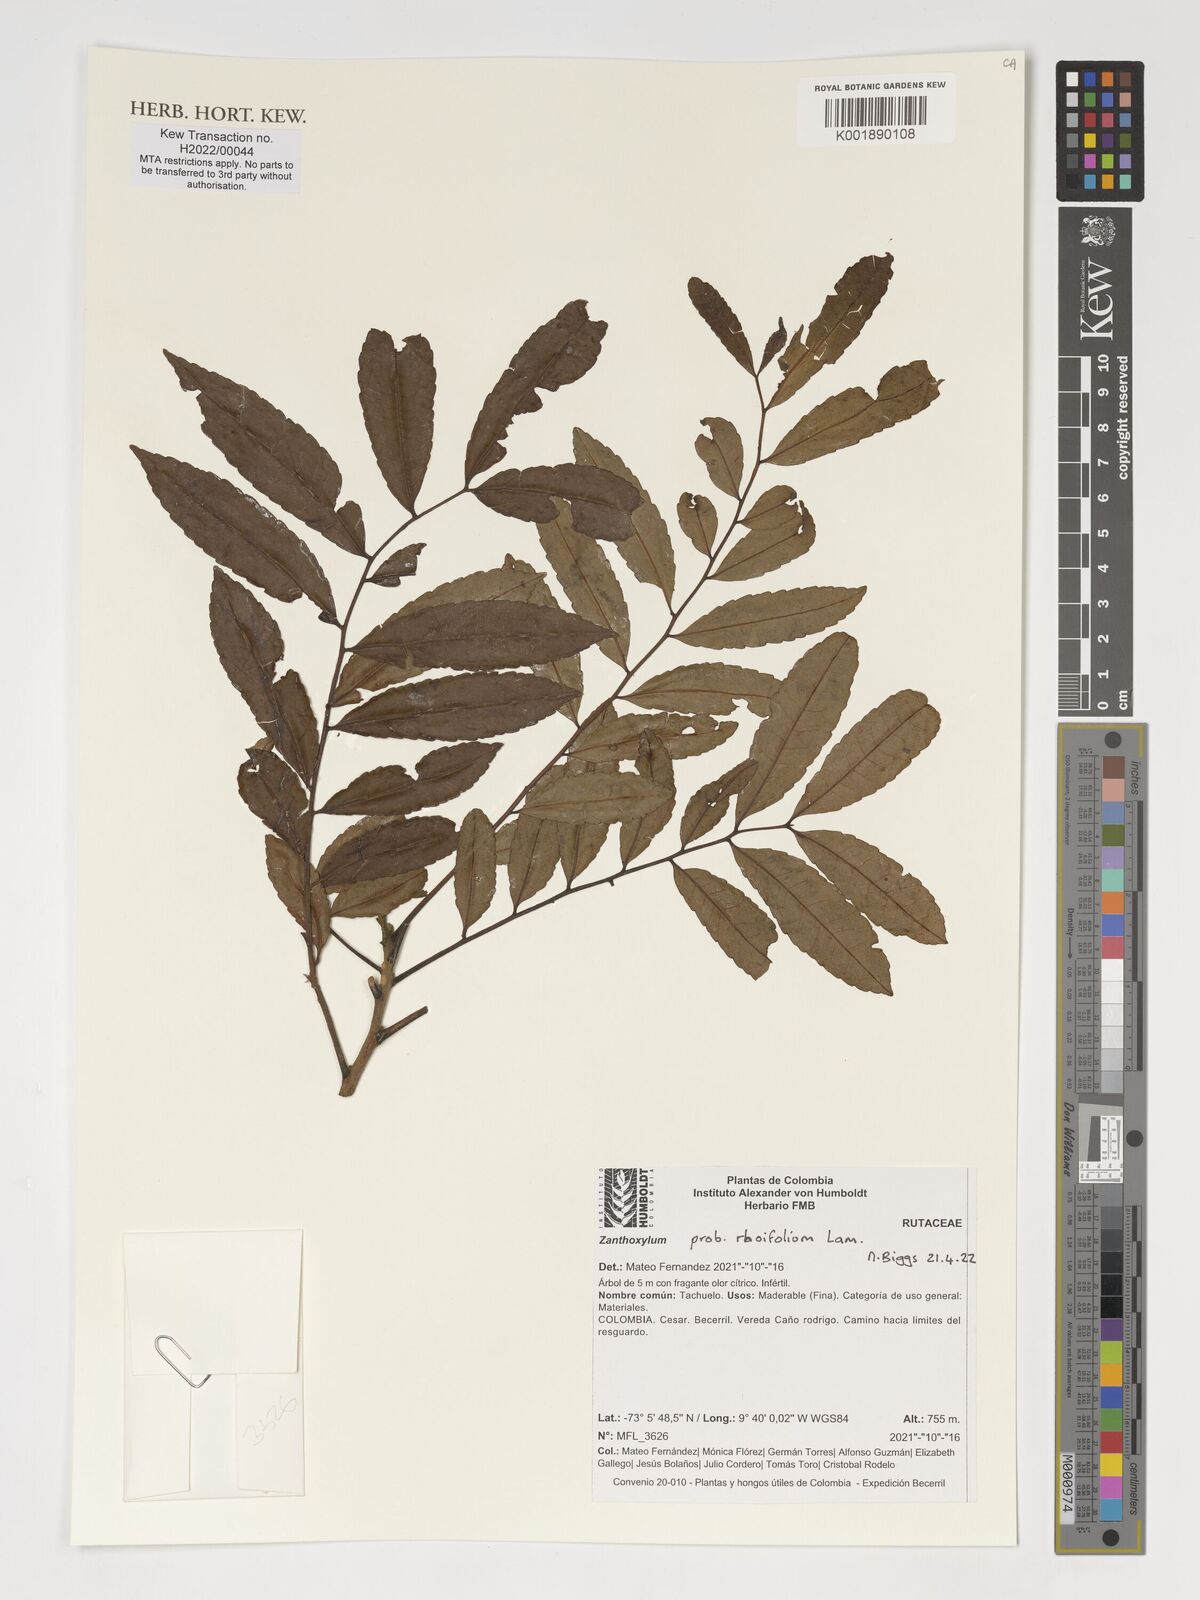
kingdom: Plantae
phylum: Tracheophyta
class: Magnoliopsida
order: Sapindales
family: Rutaceae
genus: Zanthoxylum
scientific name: Zanthoxylum
